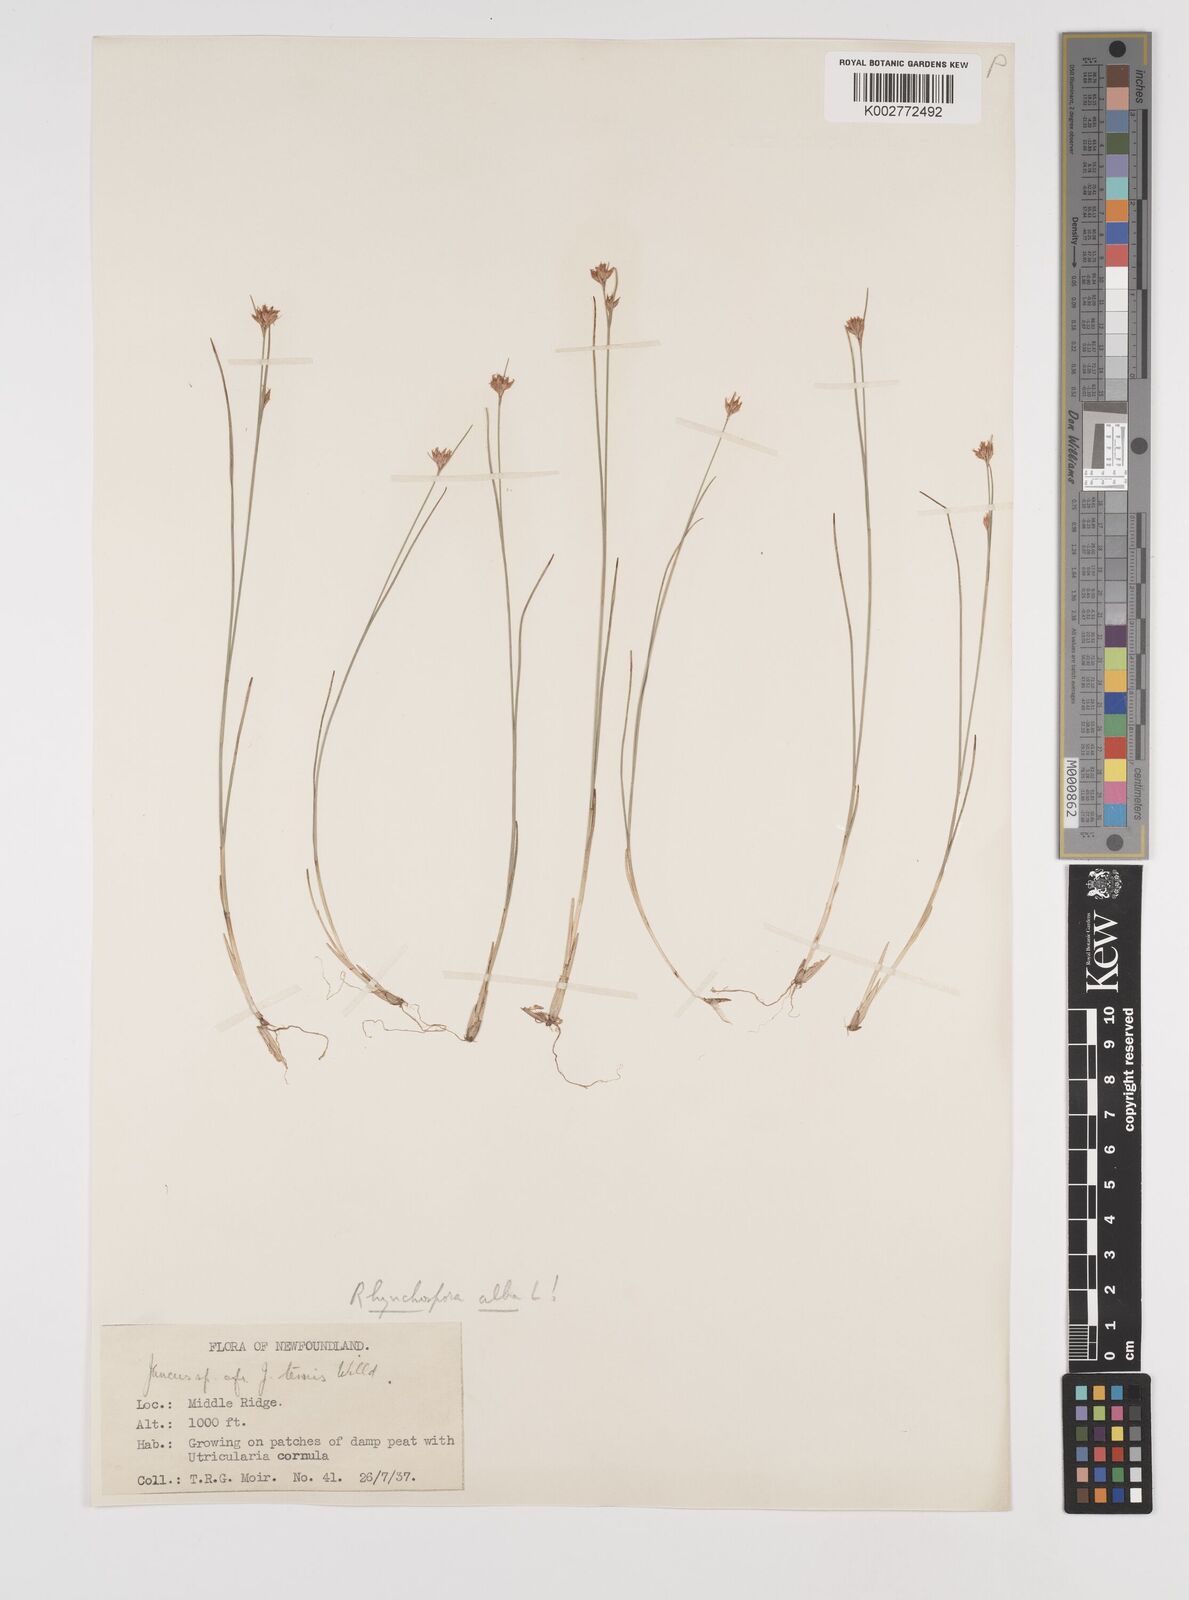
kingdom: Plantae
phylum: Tracheophyta
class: Liliopsida
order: Poales
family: Cyperaceae
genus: Rhynchospora
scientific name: Rhynchospora alba
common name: White beak-sedge
